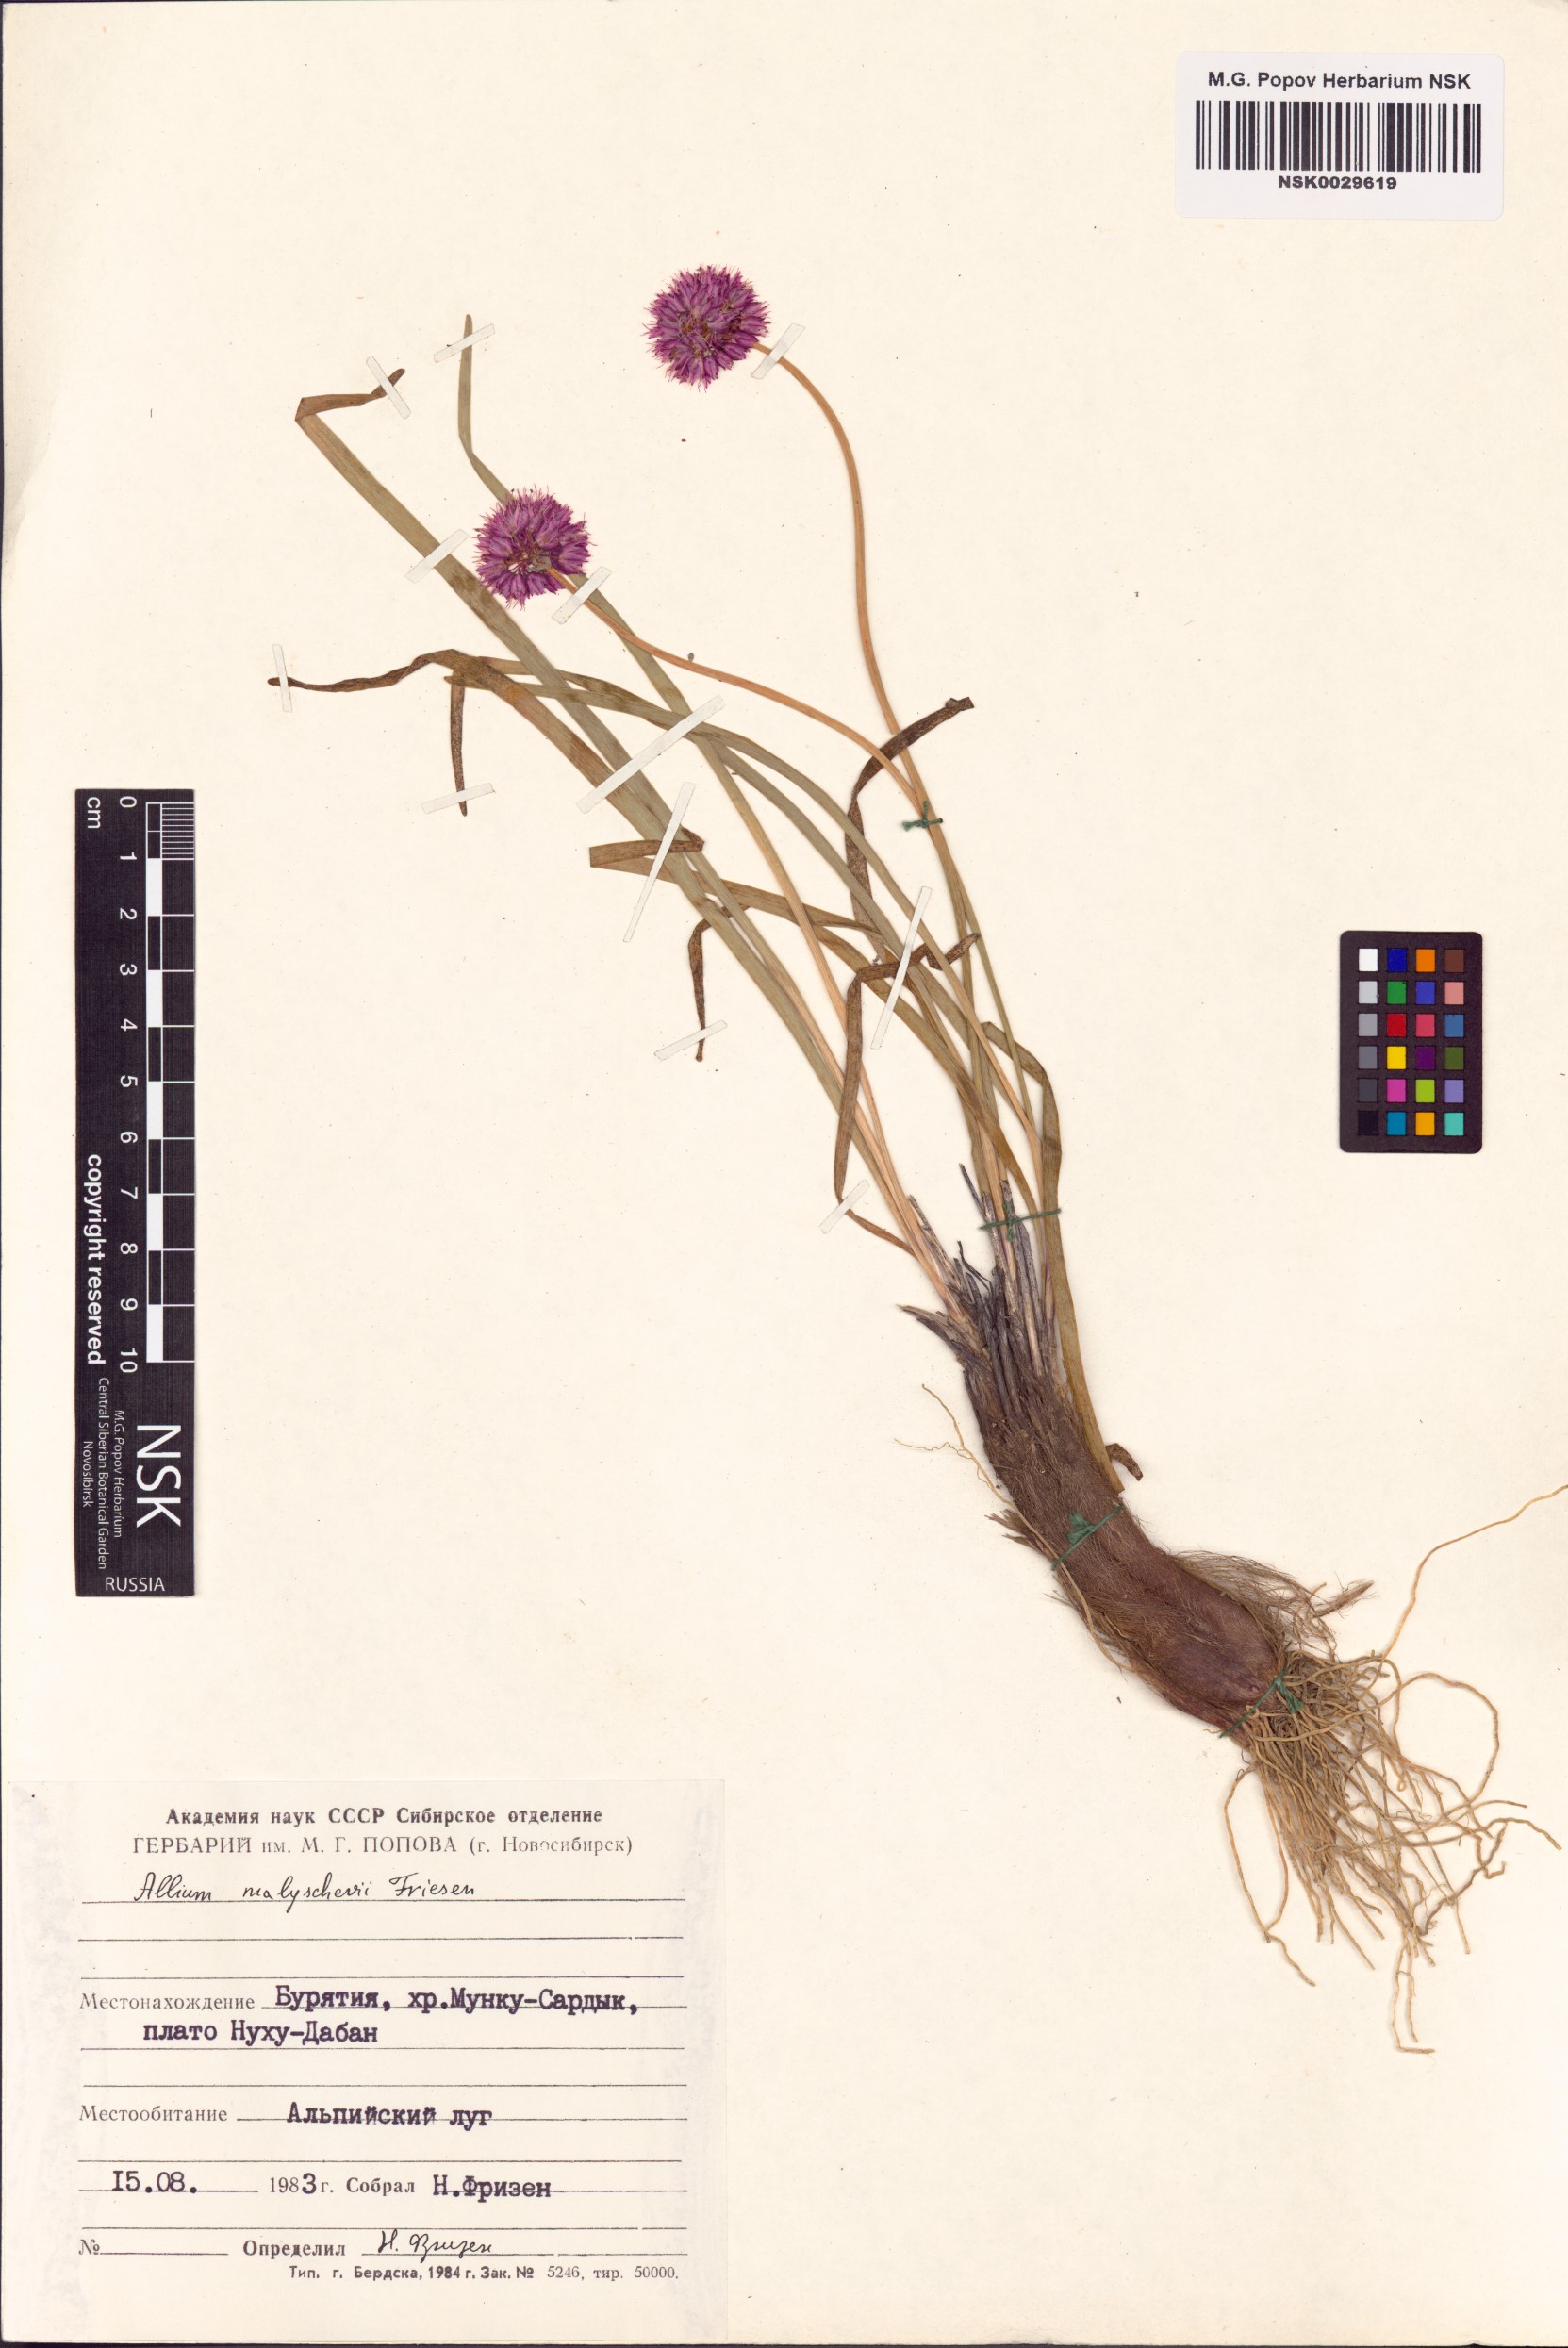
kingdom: Plantae
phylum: Tracheophyta
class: Liliopsida
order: Asparagales
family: Amaryllidaceae
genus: Allium
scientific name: Allium malyschevii
